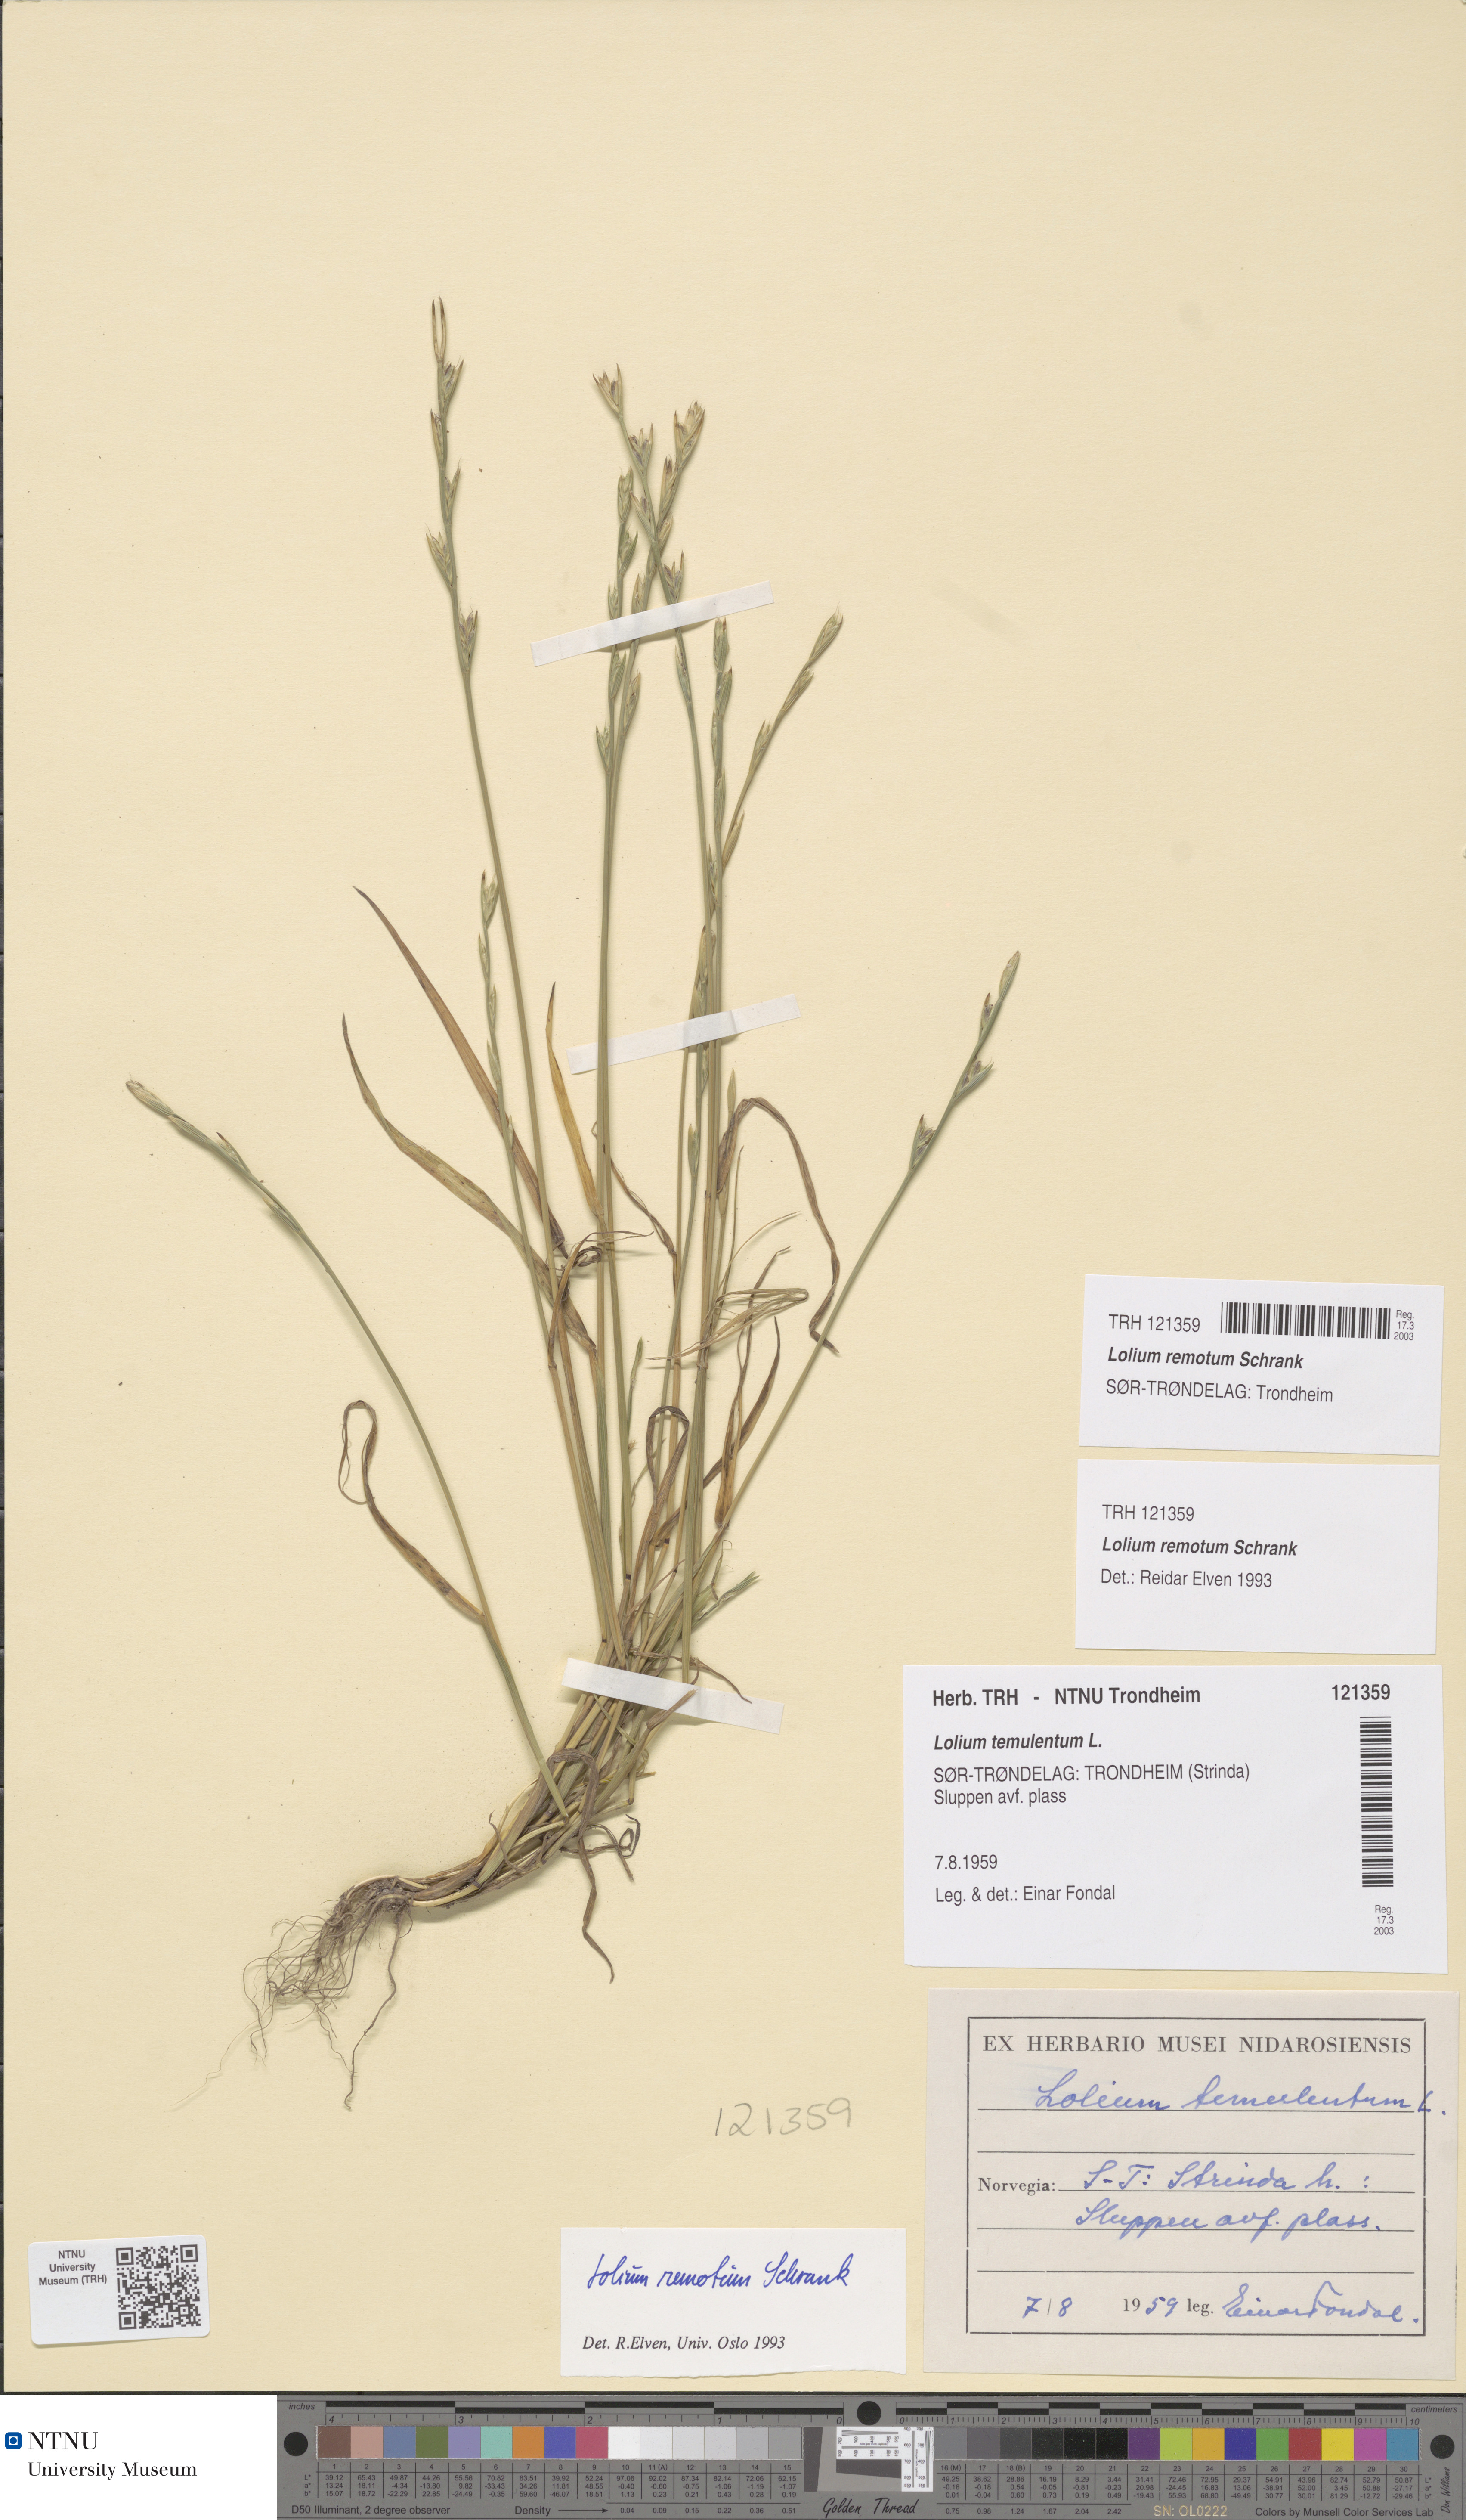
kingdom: Plantae
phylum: Tracheophyta
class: Liliopsida
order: Poales
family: Poaceae
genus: Lolium
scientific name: Lolium remotum
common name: Flaxfield rye-grass
